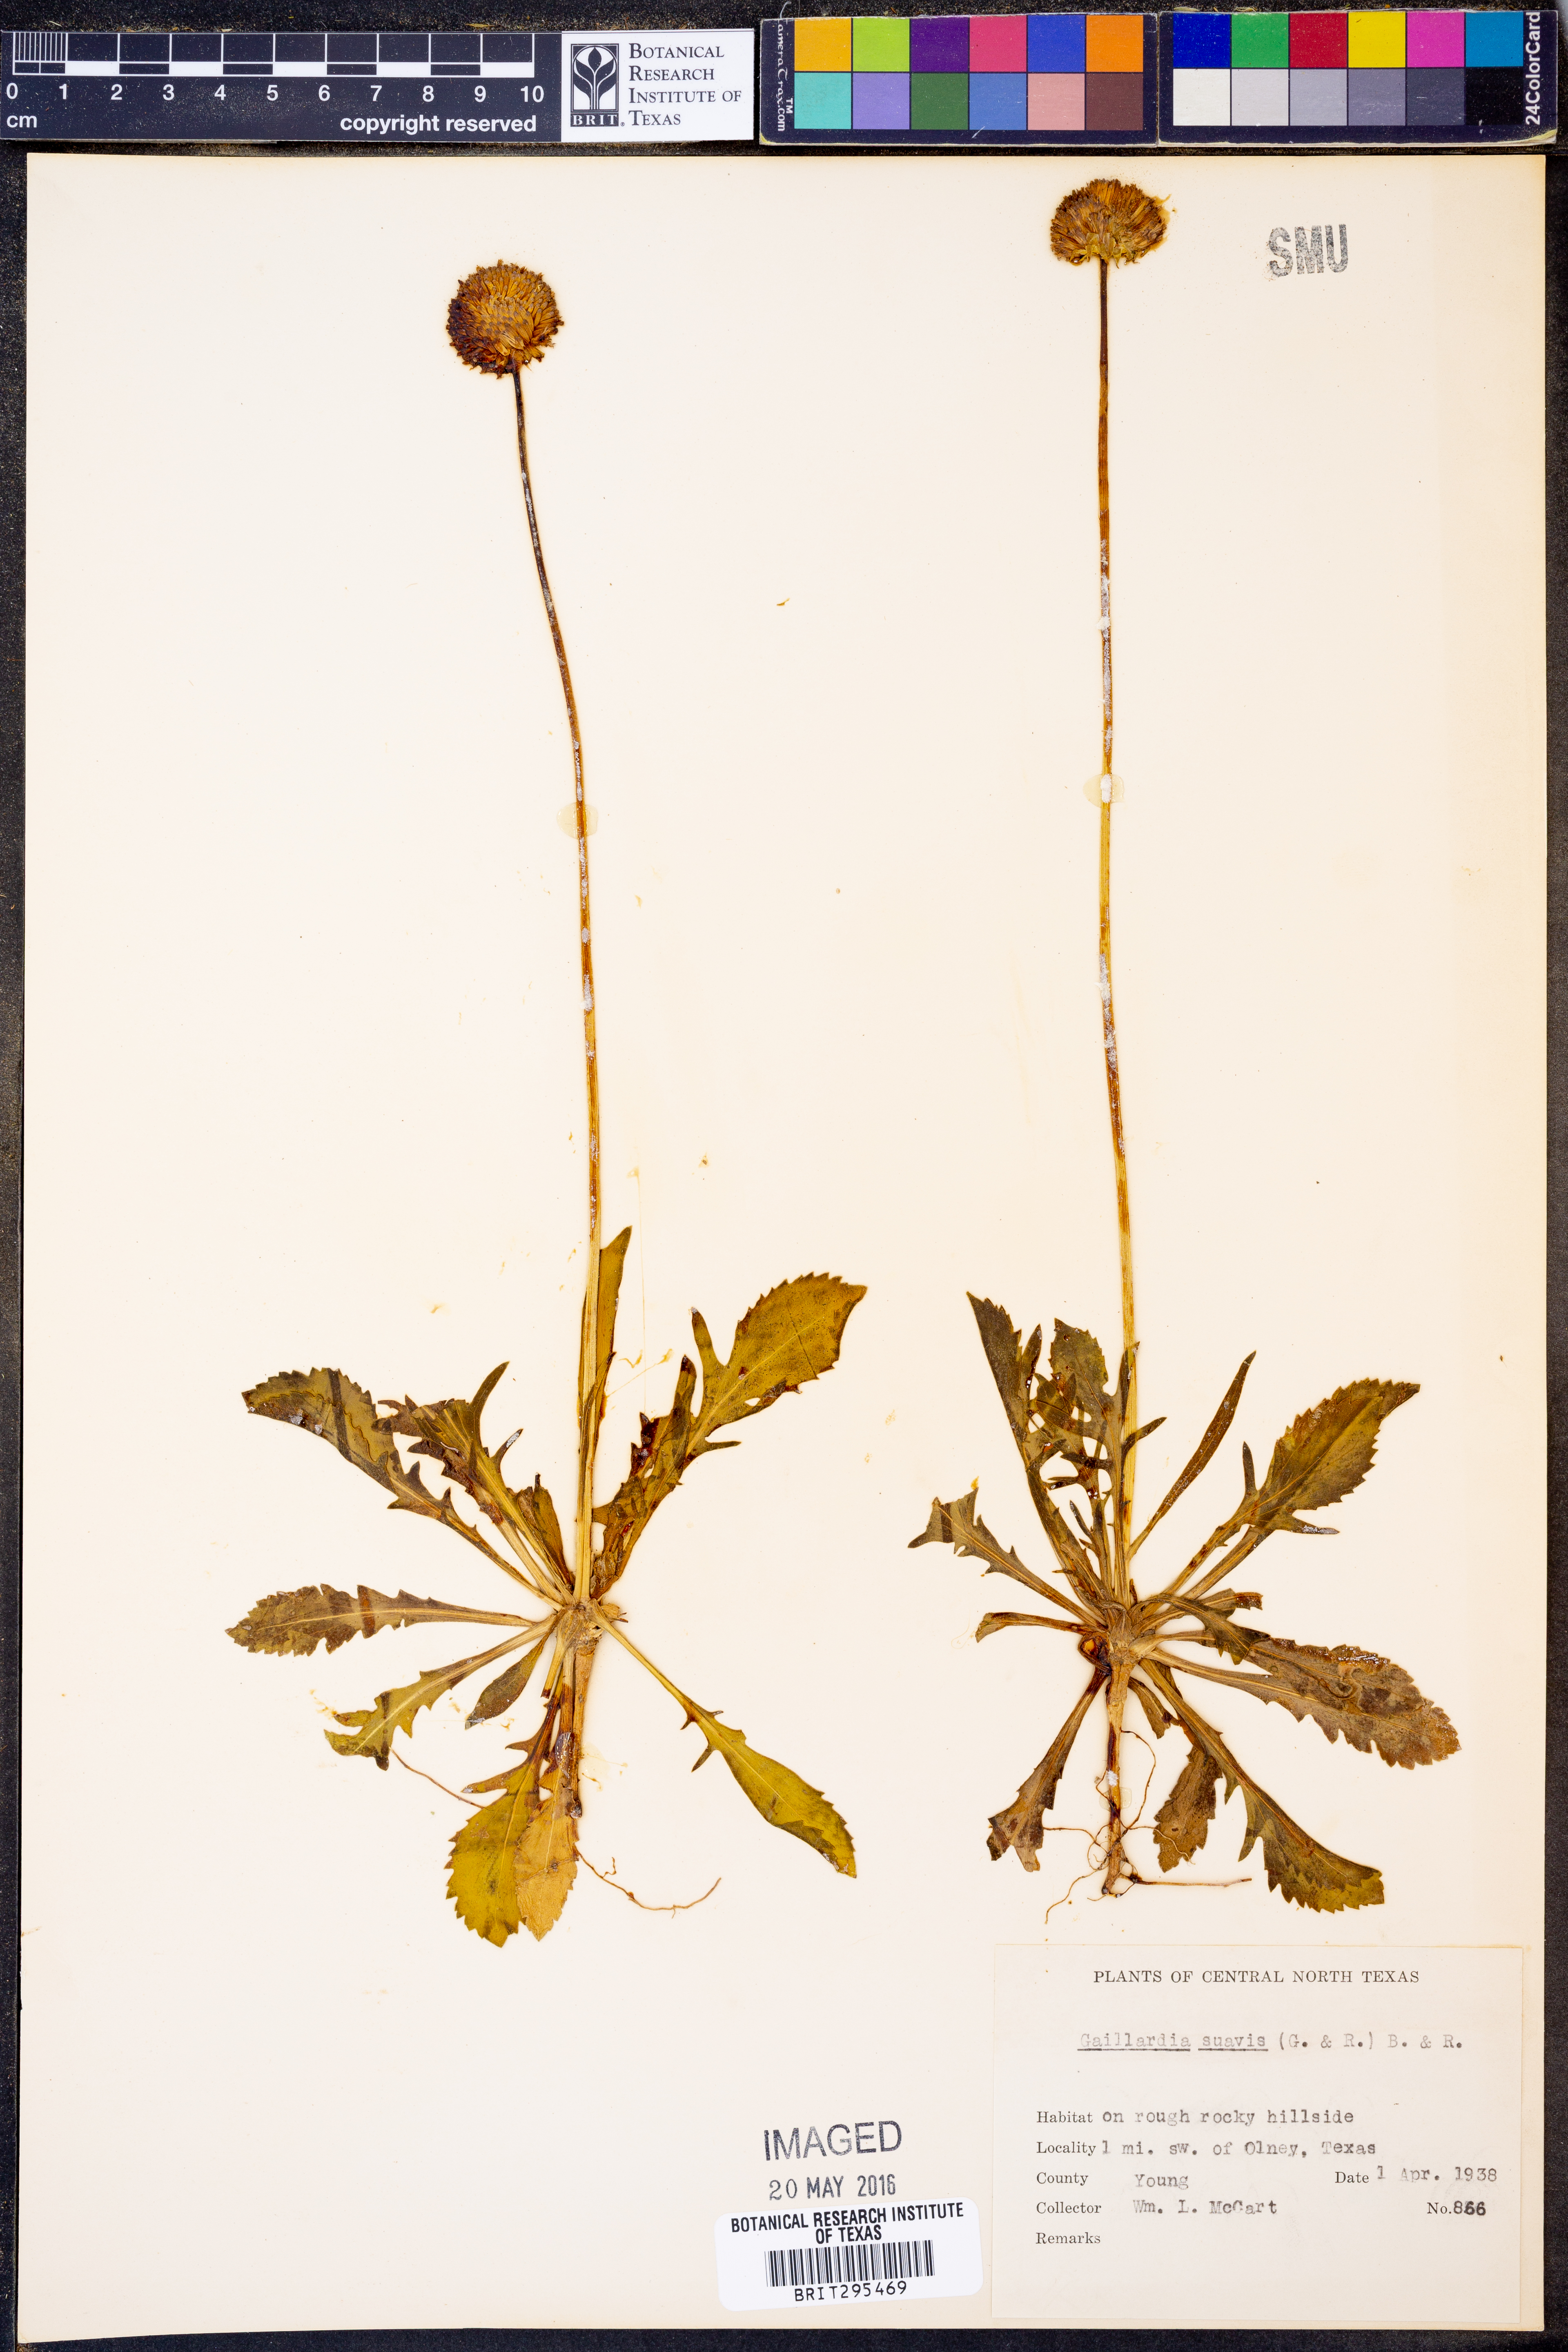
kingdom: Plantae
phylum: Tracheophyta
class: Magnoliopsida
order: Asterales
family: Asteraceae
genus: Gaillardia
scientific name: Gaillardia suavis
